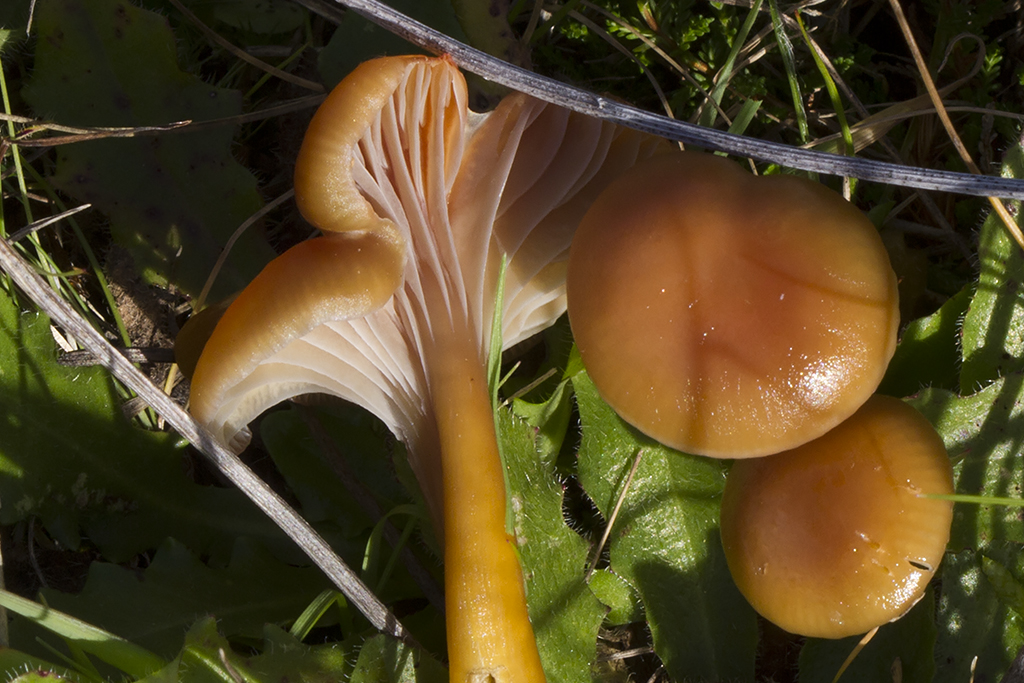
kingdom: Fungi
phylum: Basidiomycota
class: Agaricomycetes
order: Agaricales
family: Hygrophoraceae
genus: Gliophorus
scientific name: Gliophorus laetus
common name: brusk-vokshat
